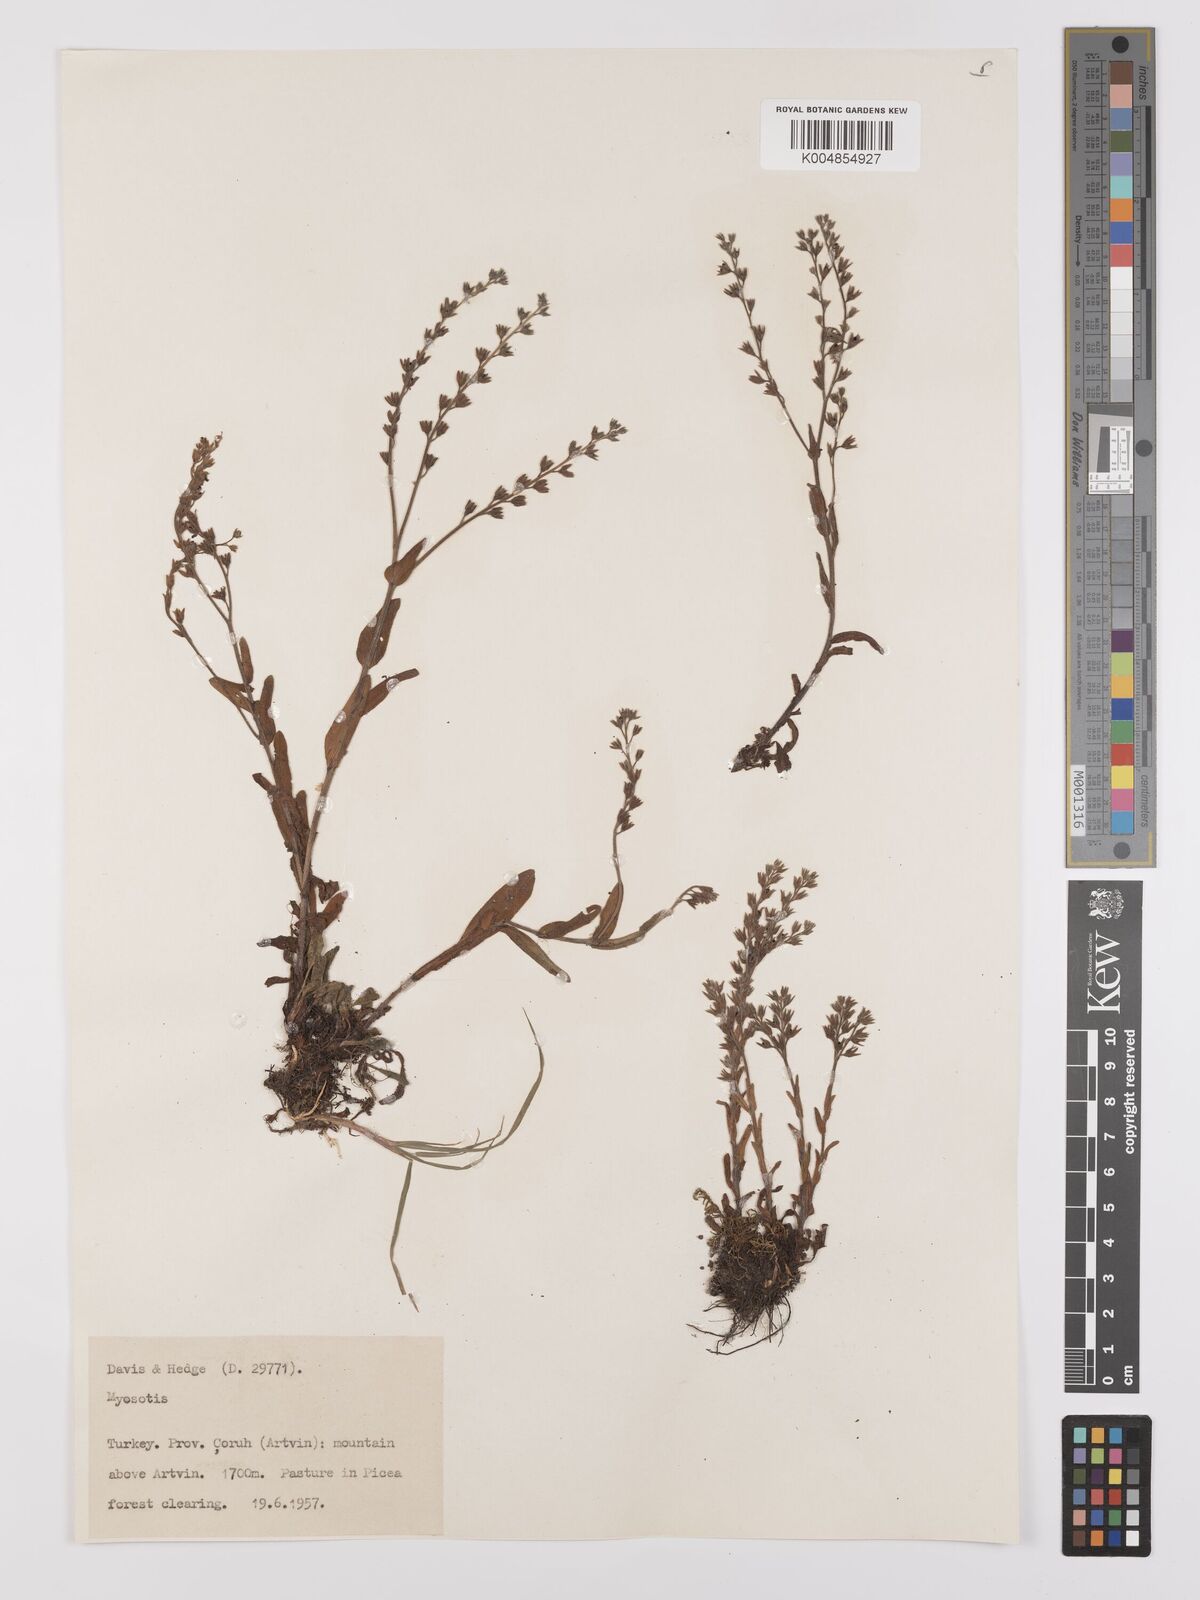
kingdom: Plantae
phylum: Tracheophyta
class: Magnoliopsida
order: Boraginales
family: Boraginaceae
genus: Myosotis
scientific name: Myosotis
